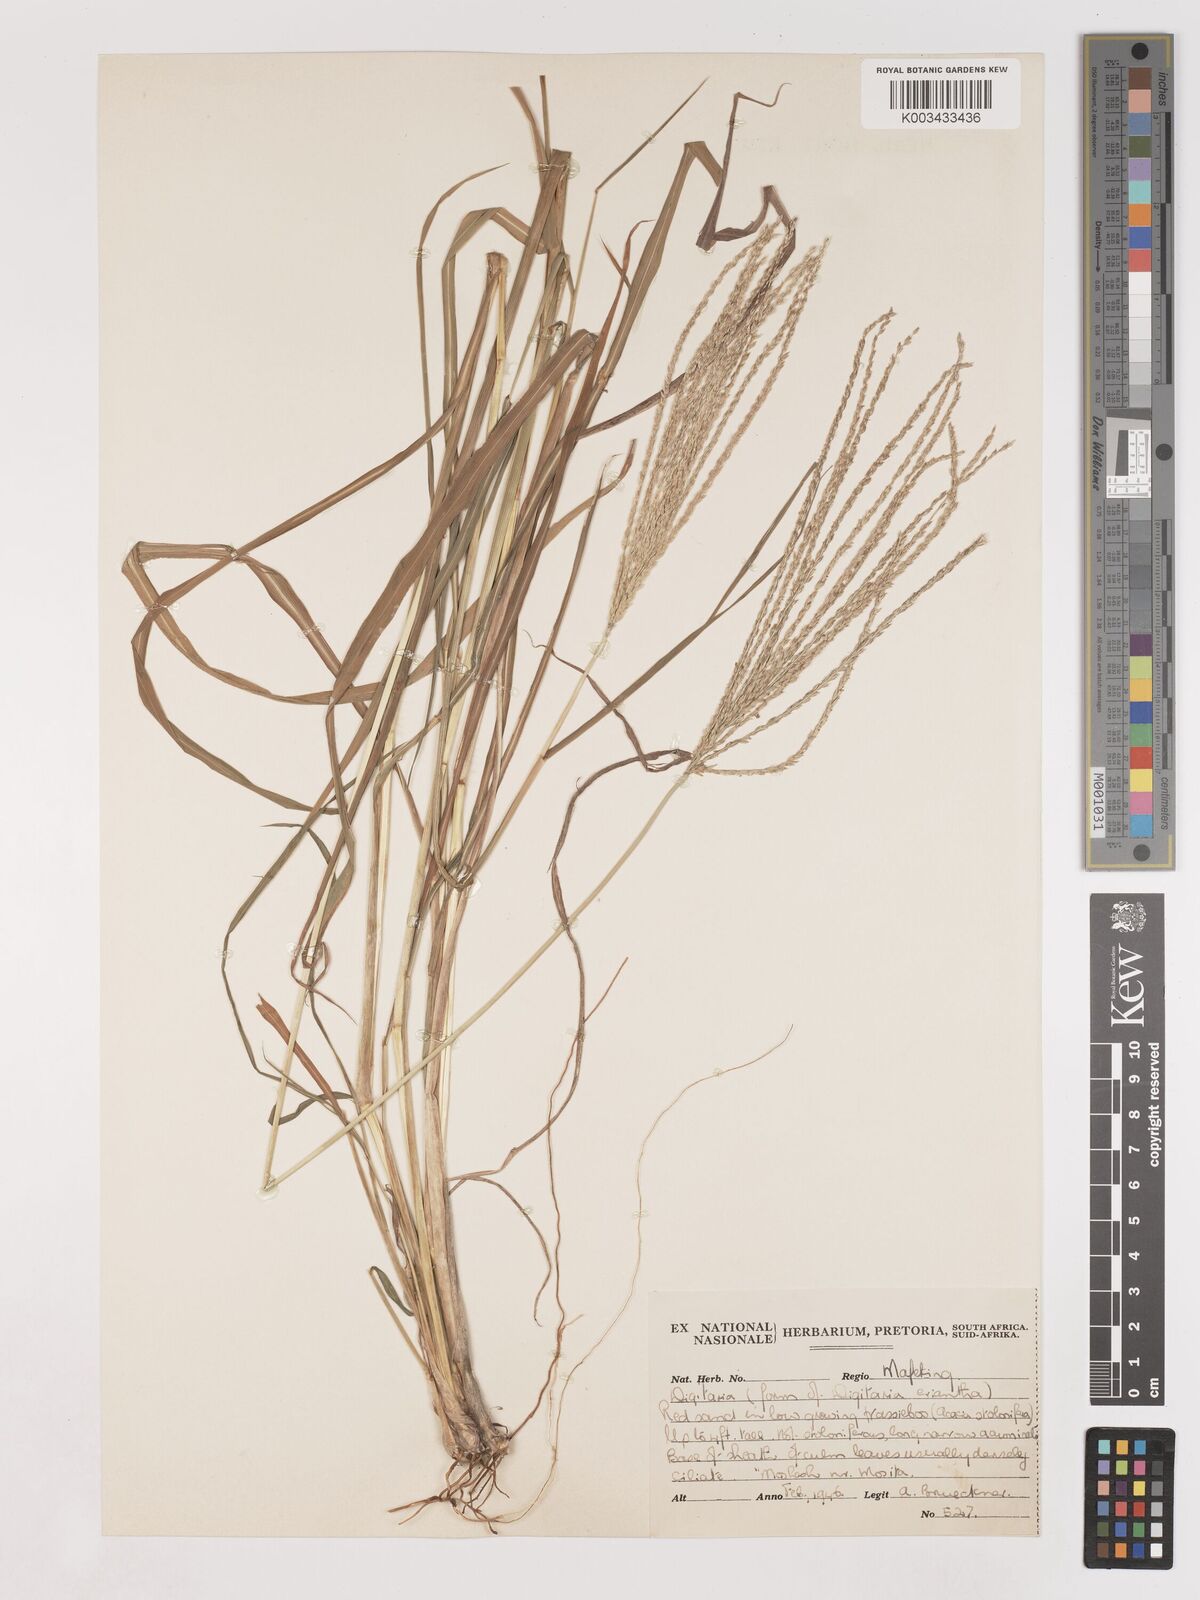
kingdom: Plantae
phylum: Tracheophyta
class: Liliopsida
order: Poales
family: Poaceae
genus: Digitaria
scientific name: Digitaria eriantha
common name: Digitgrass
